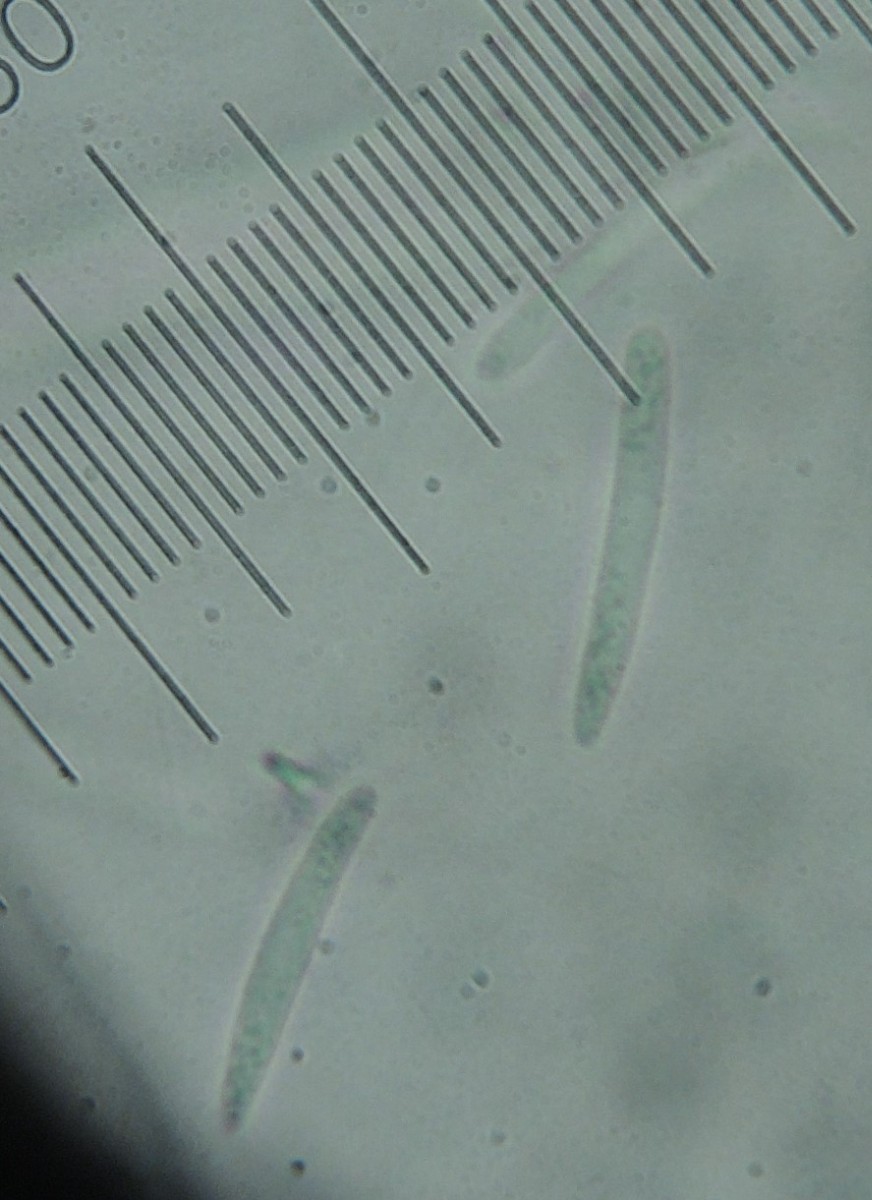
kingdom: Fungi
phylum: Ascomycota
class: Leotiomycetes
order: Helotiales
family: Mollisiaceae
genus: Trichobelonium
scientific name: Trichobelonium kneiffii
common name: Reed mat disco
